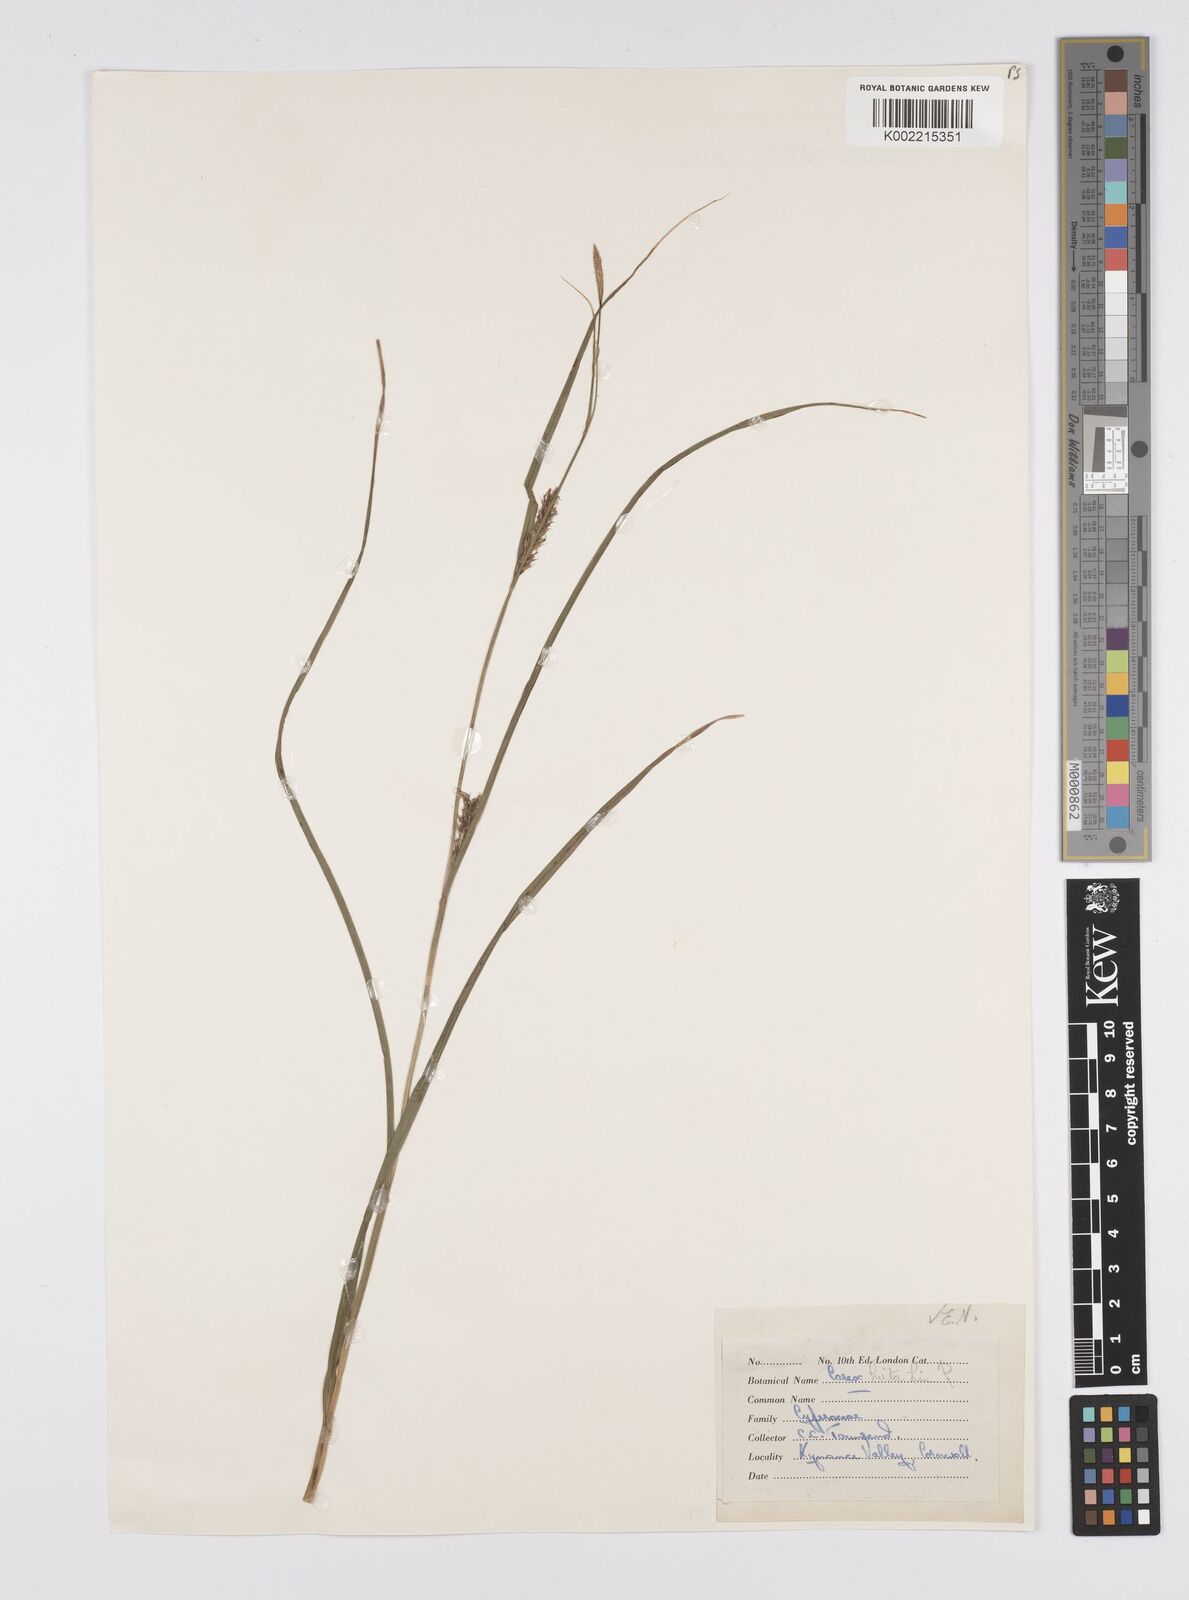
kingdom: Plantae
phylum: Tracheophyta
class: Liliopsida
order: Poales
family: Cyperaceae
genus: Carex
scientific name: Carex hirta
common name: Hairy sedge
